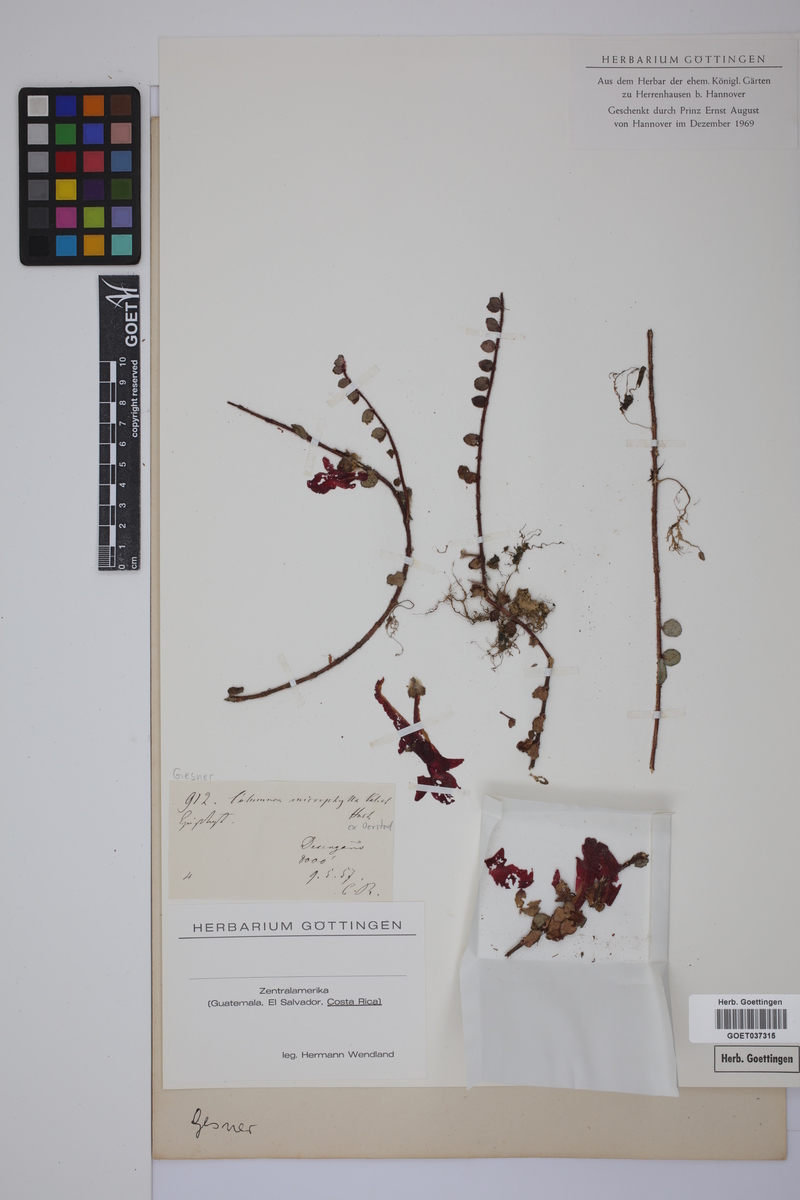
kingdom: Plantae
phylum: Tracheophyta
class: Magnoliopsida
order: Lamiales
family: Gesneriaceae
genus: Columnea
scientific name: Columnea microphylla
